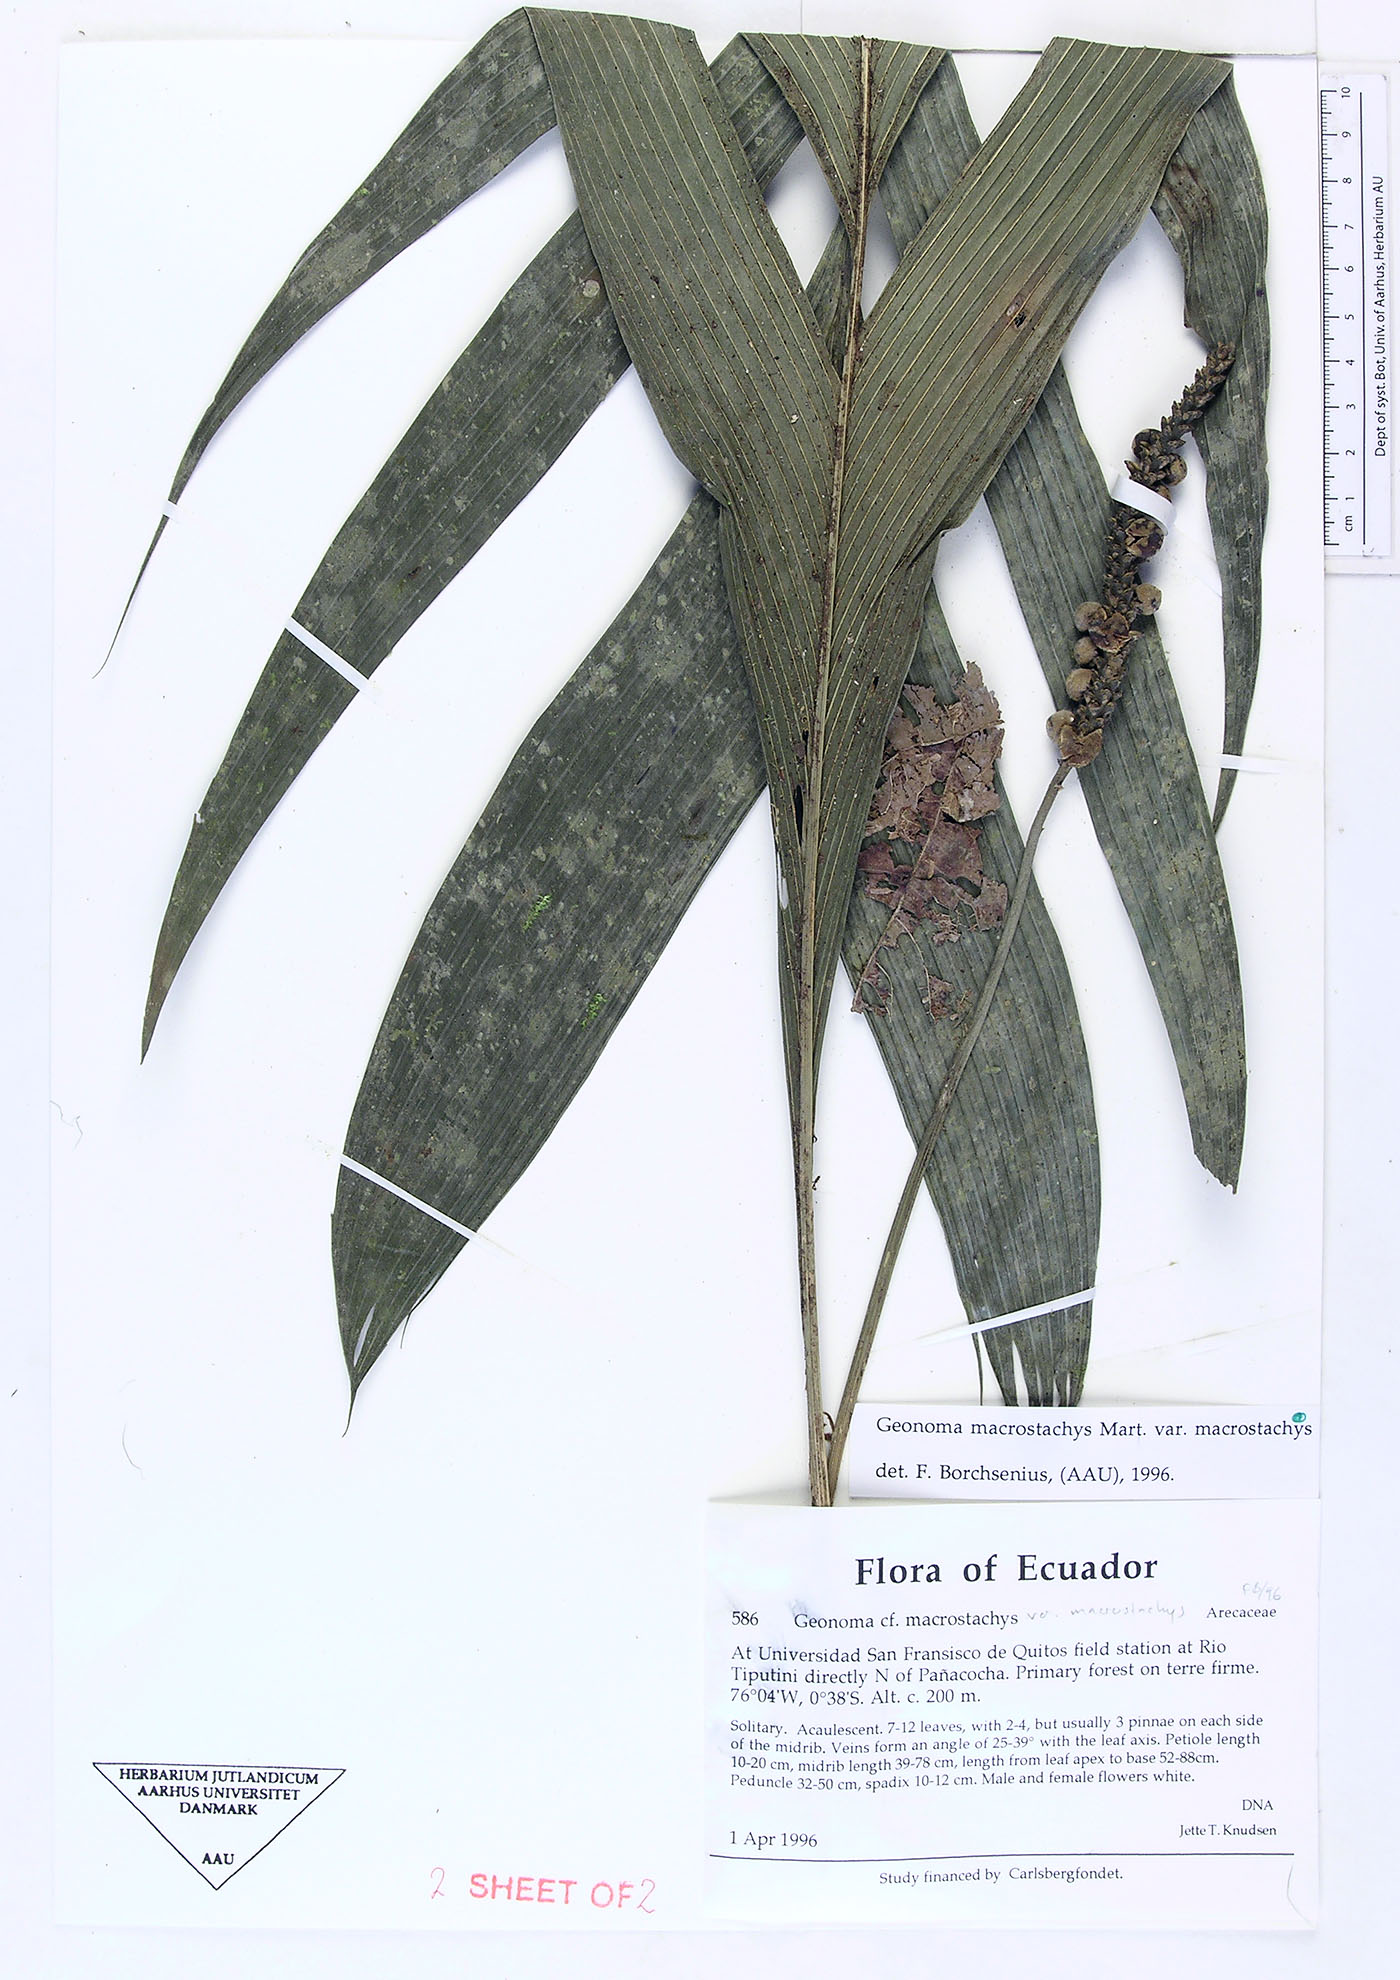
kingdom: Plantae
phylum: Tracheophyta
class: Liliopsida
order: Arecales
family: Arecaceae
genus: Geonoma
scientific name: Geonoma macrostachys
